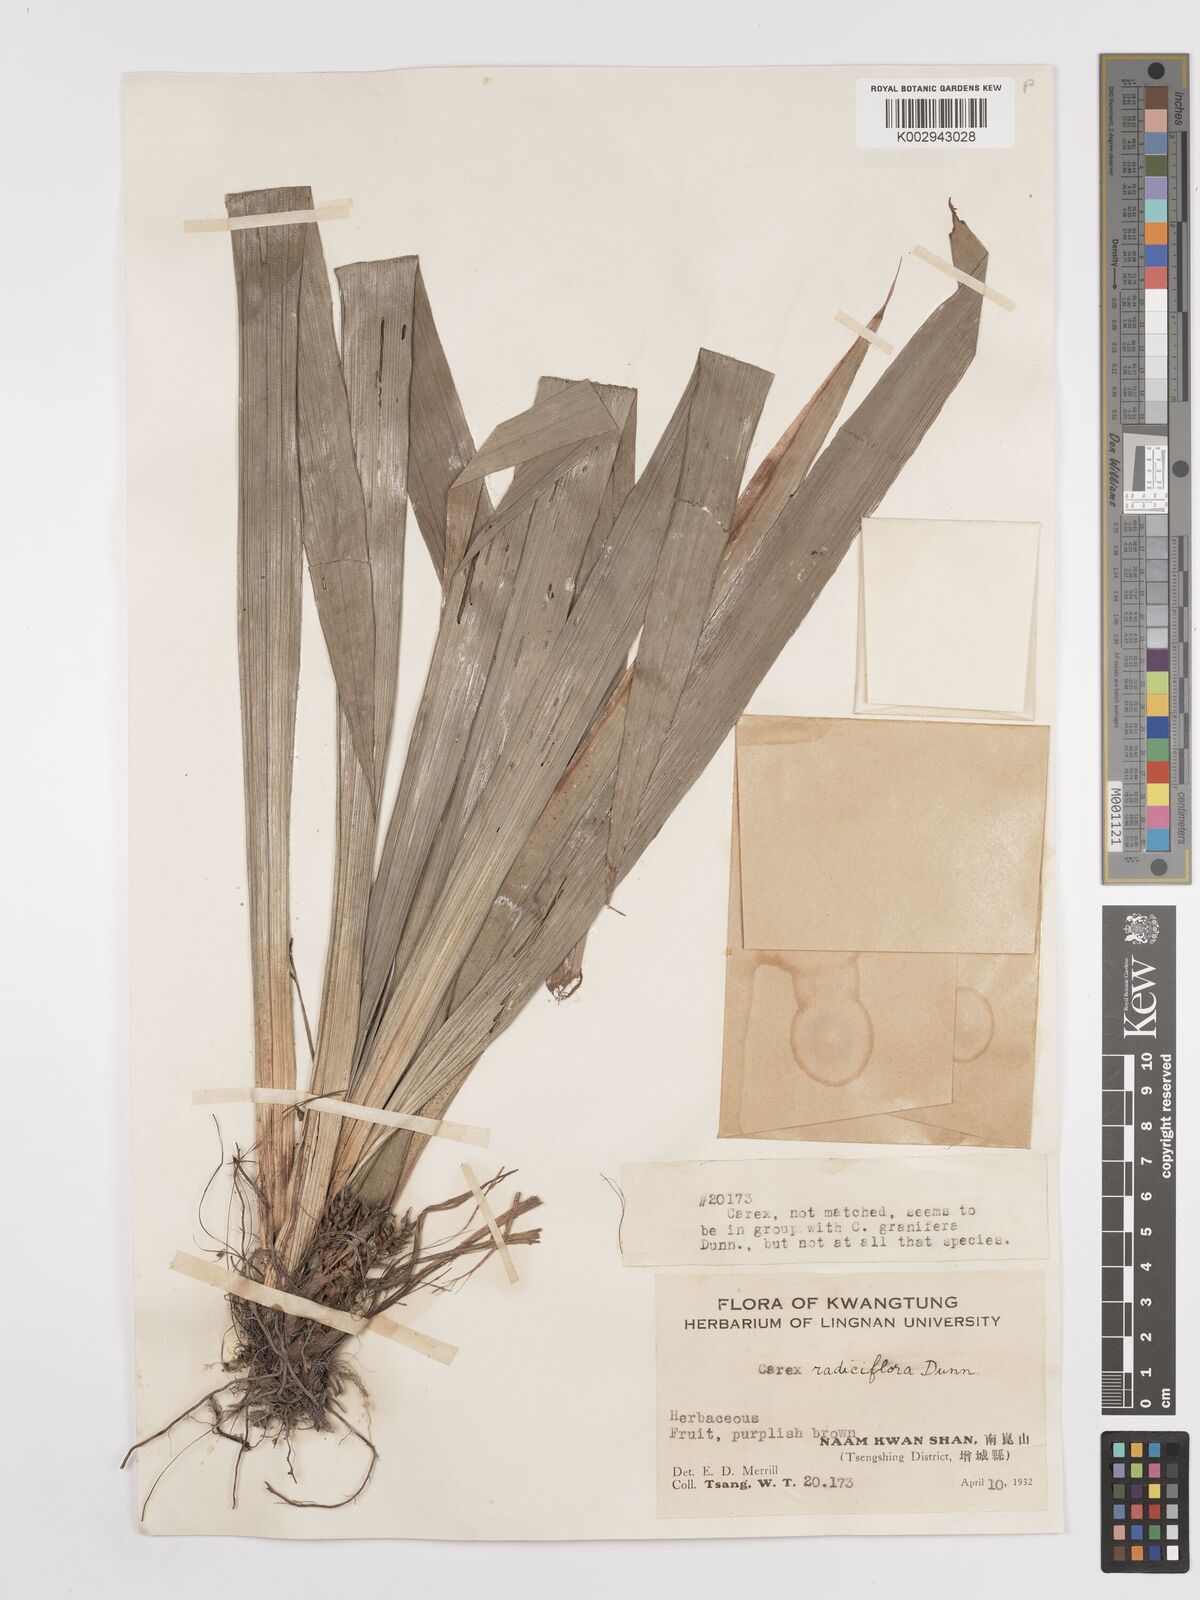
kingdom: Plantae
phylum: Tracheophyta
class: Liliopsida
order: Poales
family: Cyperaceae
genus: Carex
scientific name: Carex radiciflora
